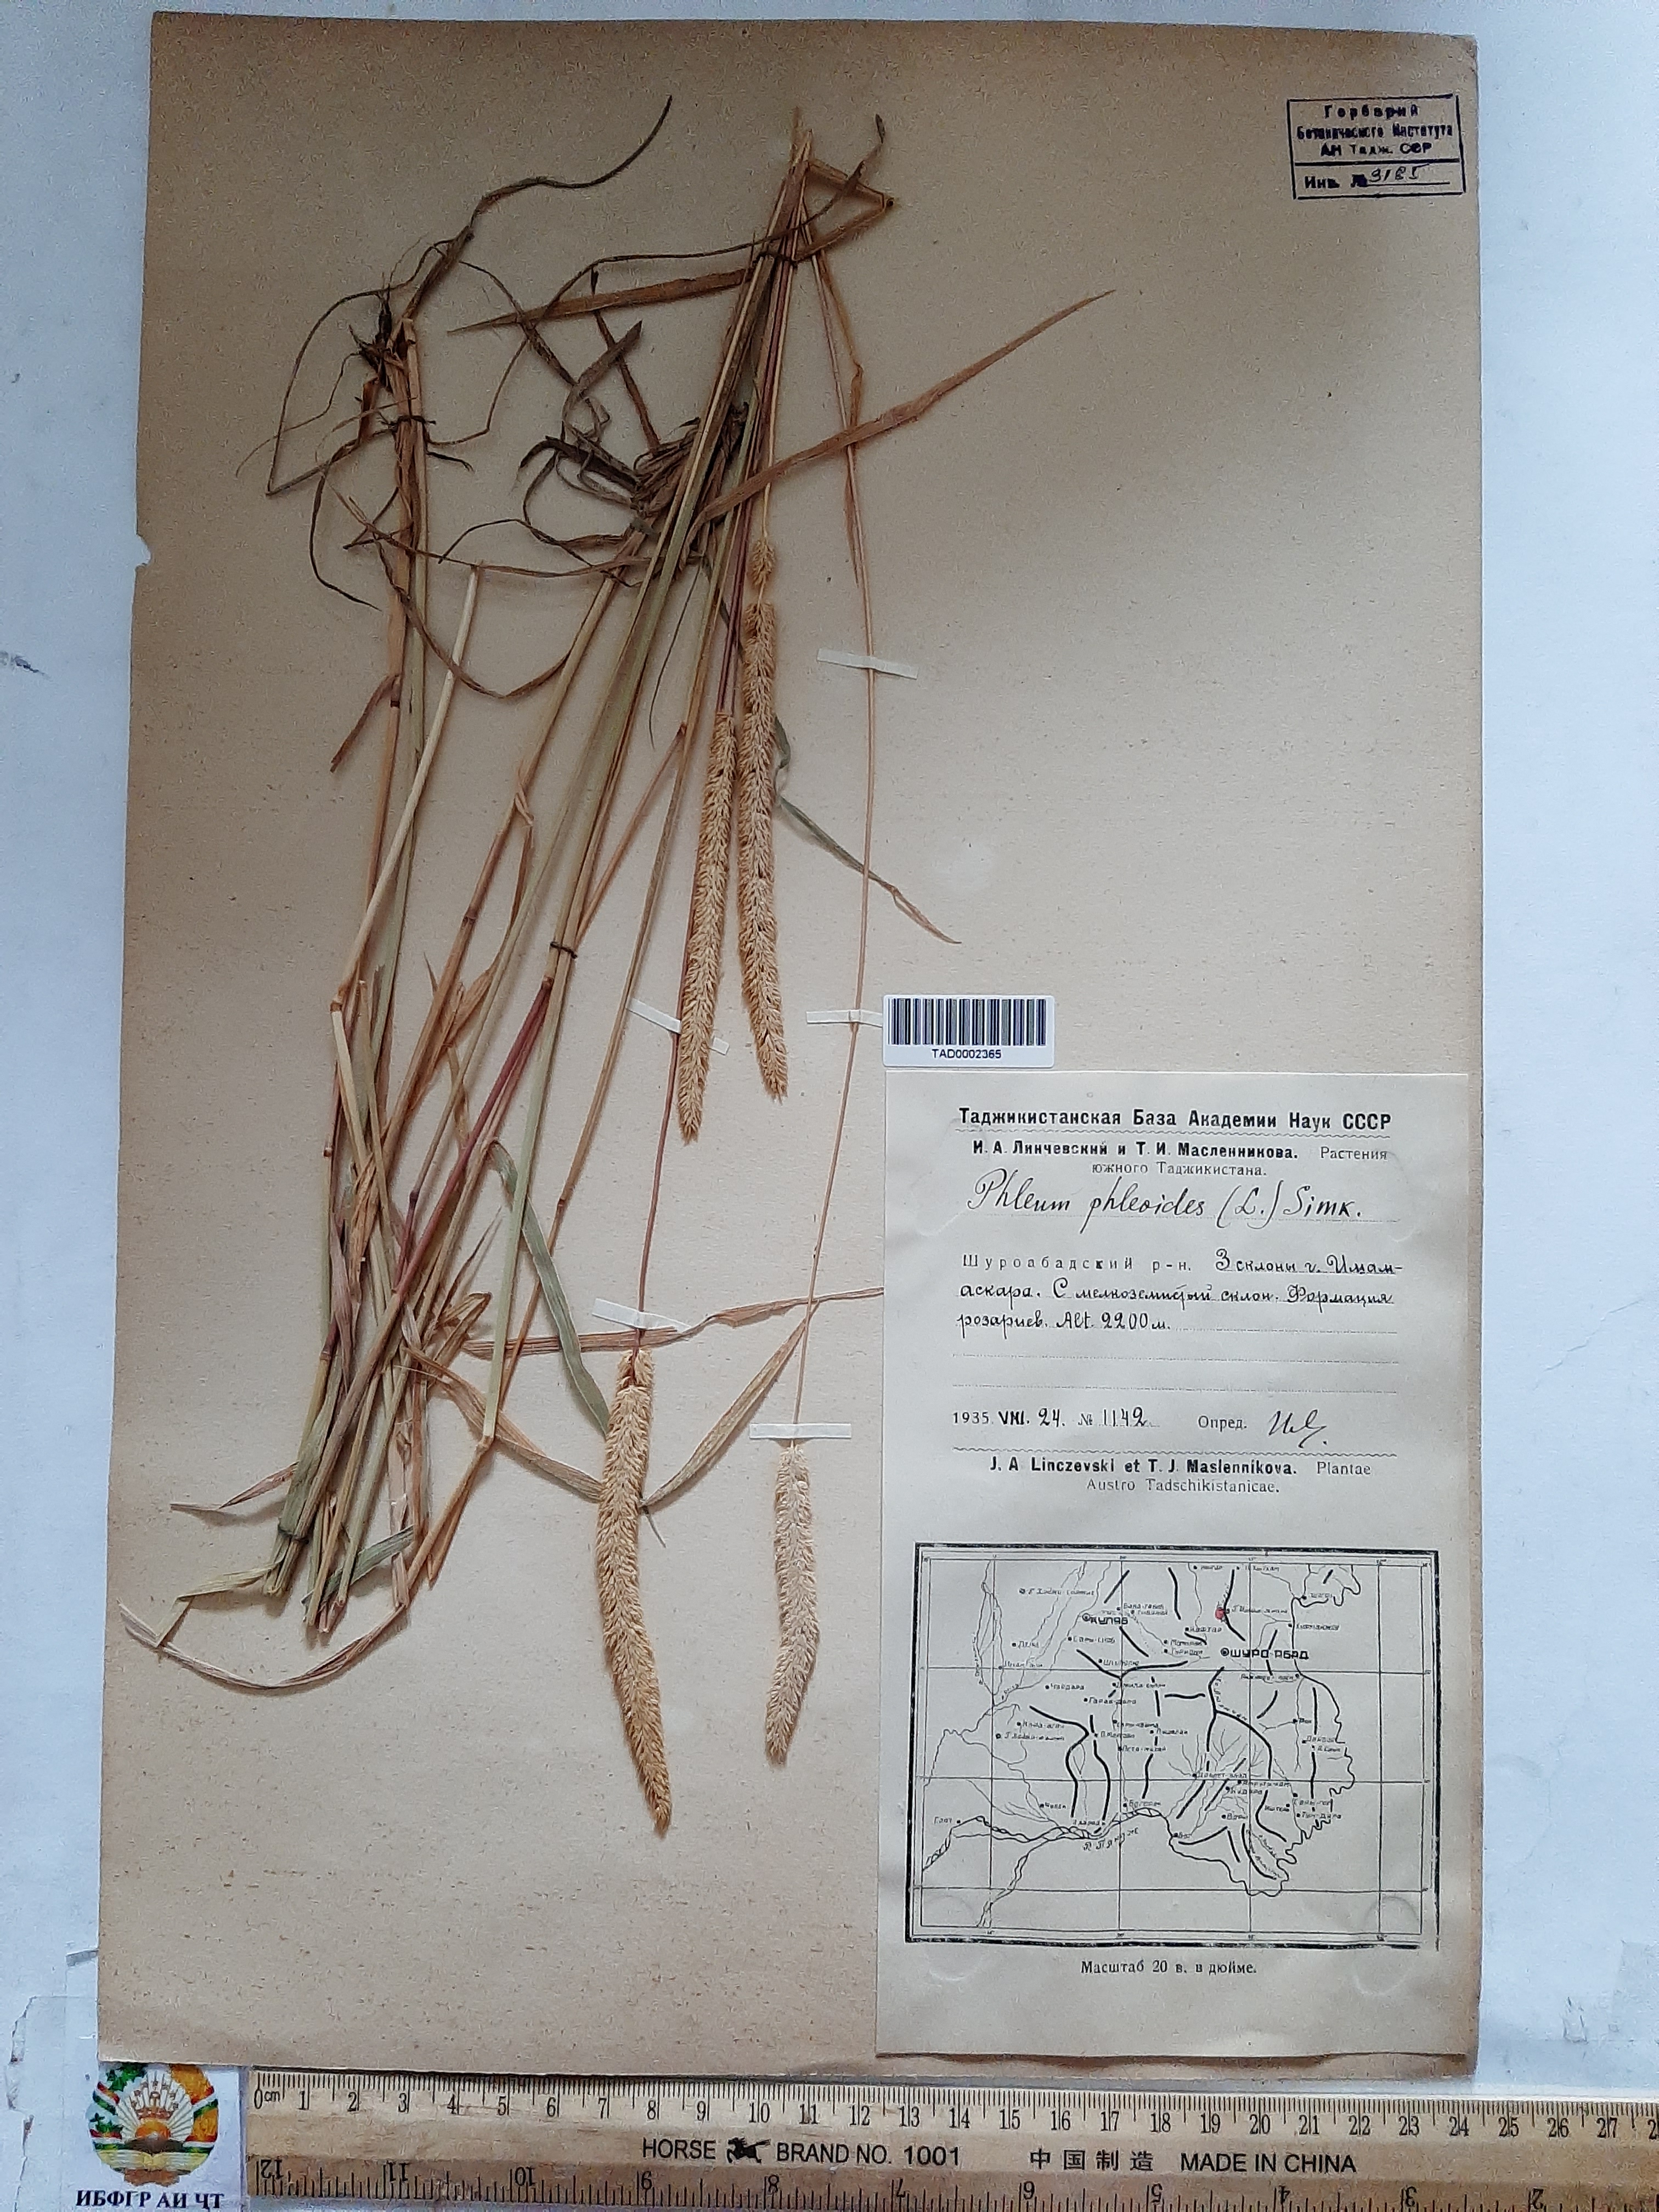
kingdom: Plantae
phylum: Tracheophyta
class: Liliopsida
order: Poales
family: Poaceae
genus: Phleum
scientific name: Phleum phleoides
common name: Purple-stem cat's-tail
